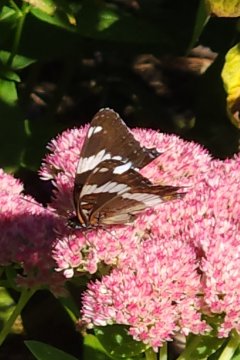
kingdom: Animalia
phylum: Arthropoda
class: Insecta
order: Lepidoptera
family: Nymphalidae
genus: Limenitis
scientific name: Limenitis arthemis
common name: Red-spotted Admiral
